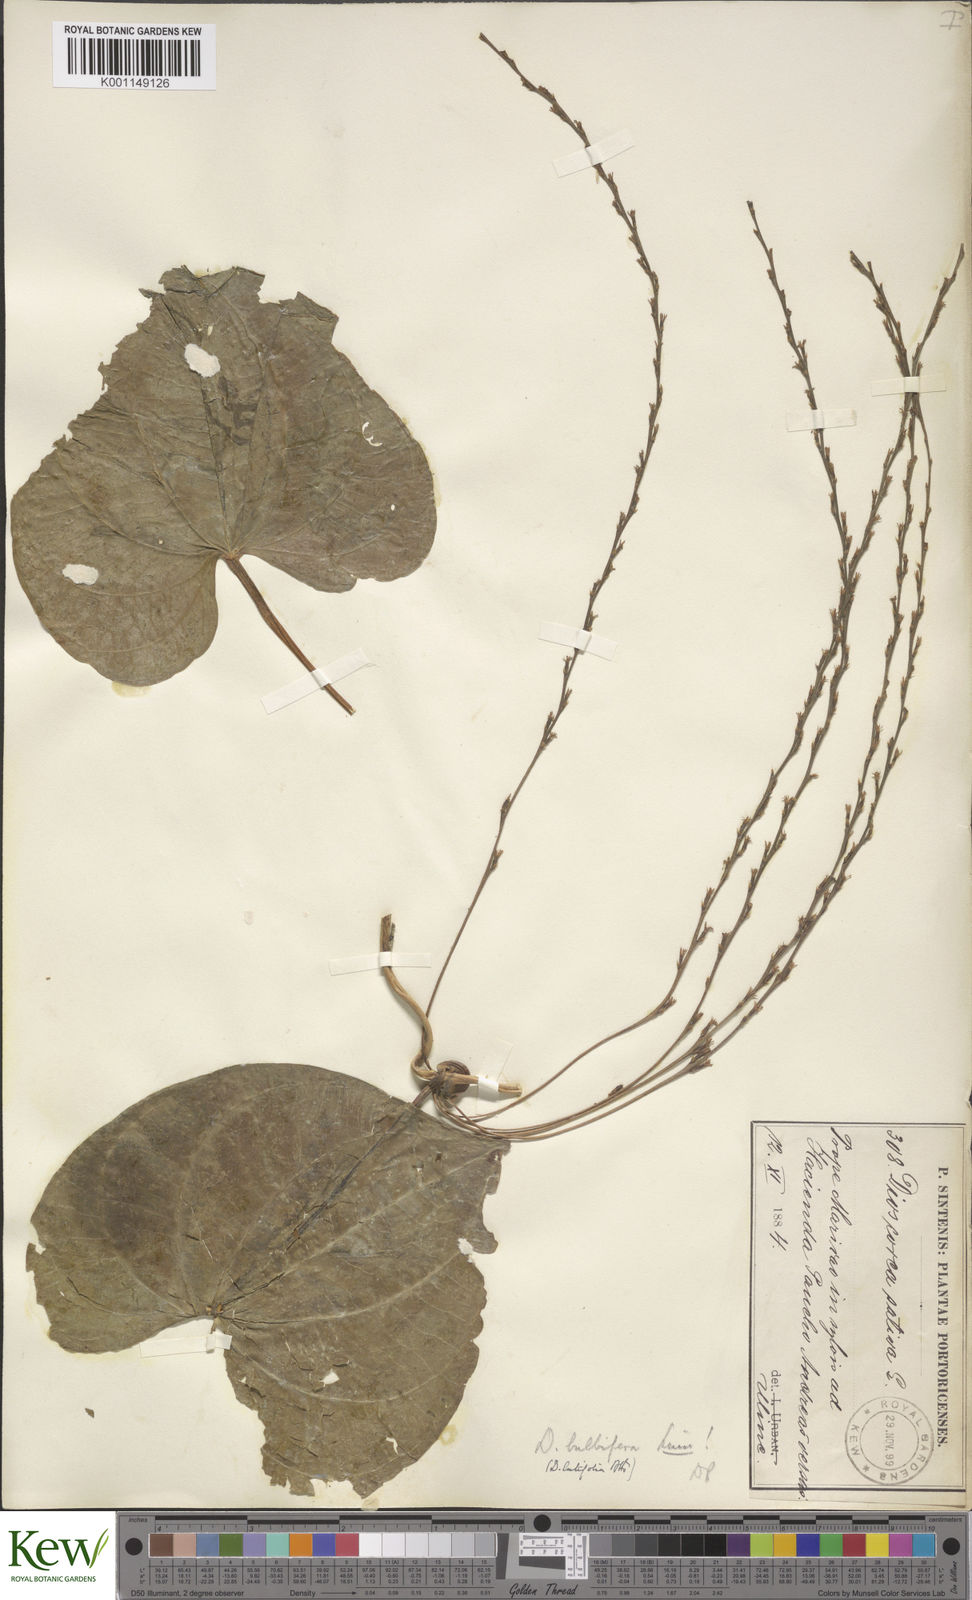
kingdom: Plantae
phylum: Tracheophyta
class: Liliopsida
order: Dioscoreales
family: Dioscoreaceae
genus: Dioscorea
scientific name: Dioscorea bulbifera
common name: Air yam
